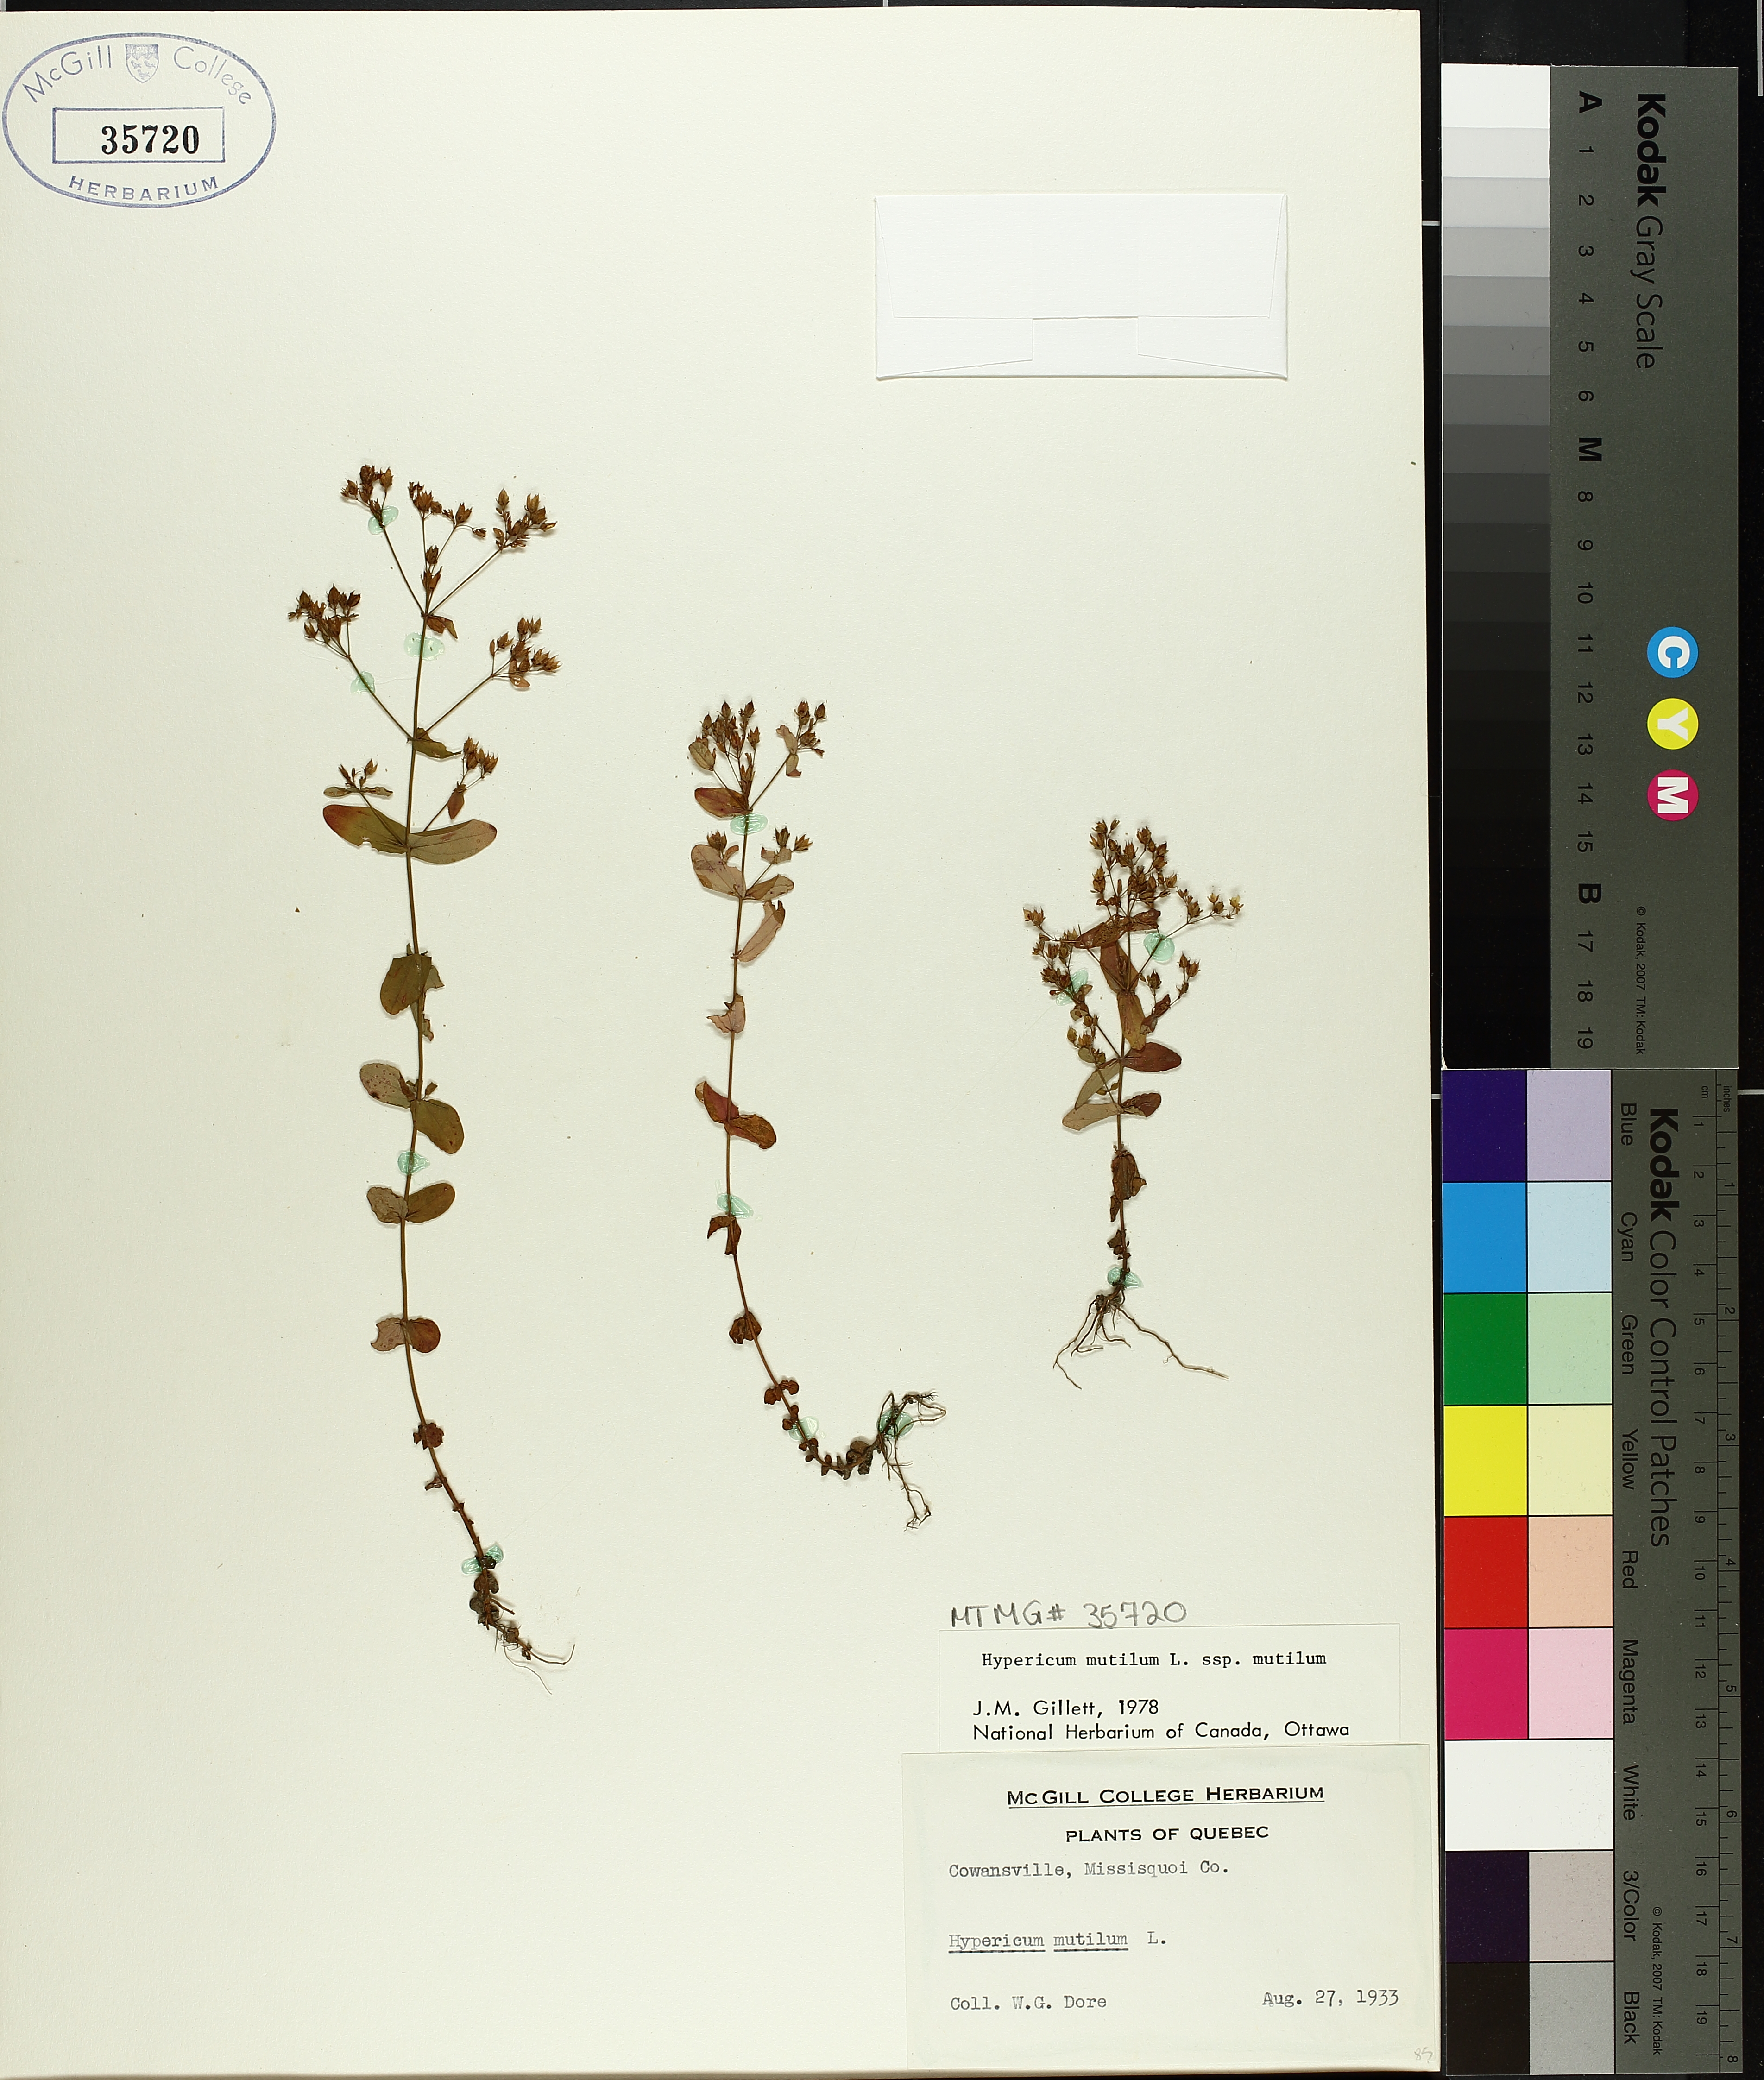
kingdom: Plantae
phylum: Tracheophyta
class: Magnoliopsida
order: Malpighiales
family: Hypericaceae
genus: Hypericum
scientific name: Hypericum mutilum
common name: Dwarf st. john's-wort
